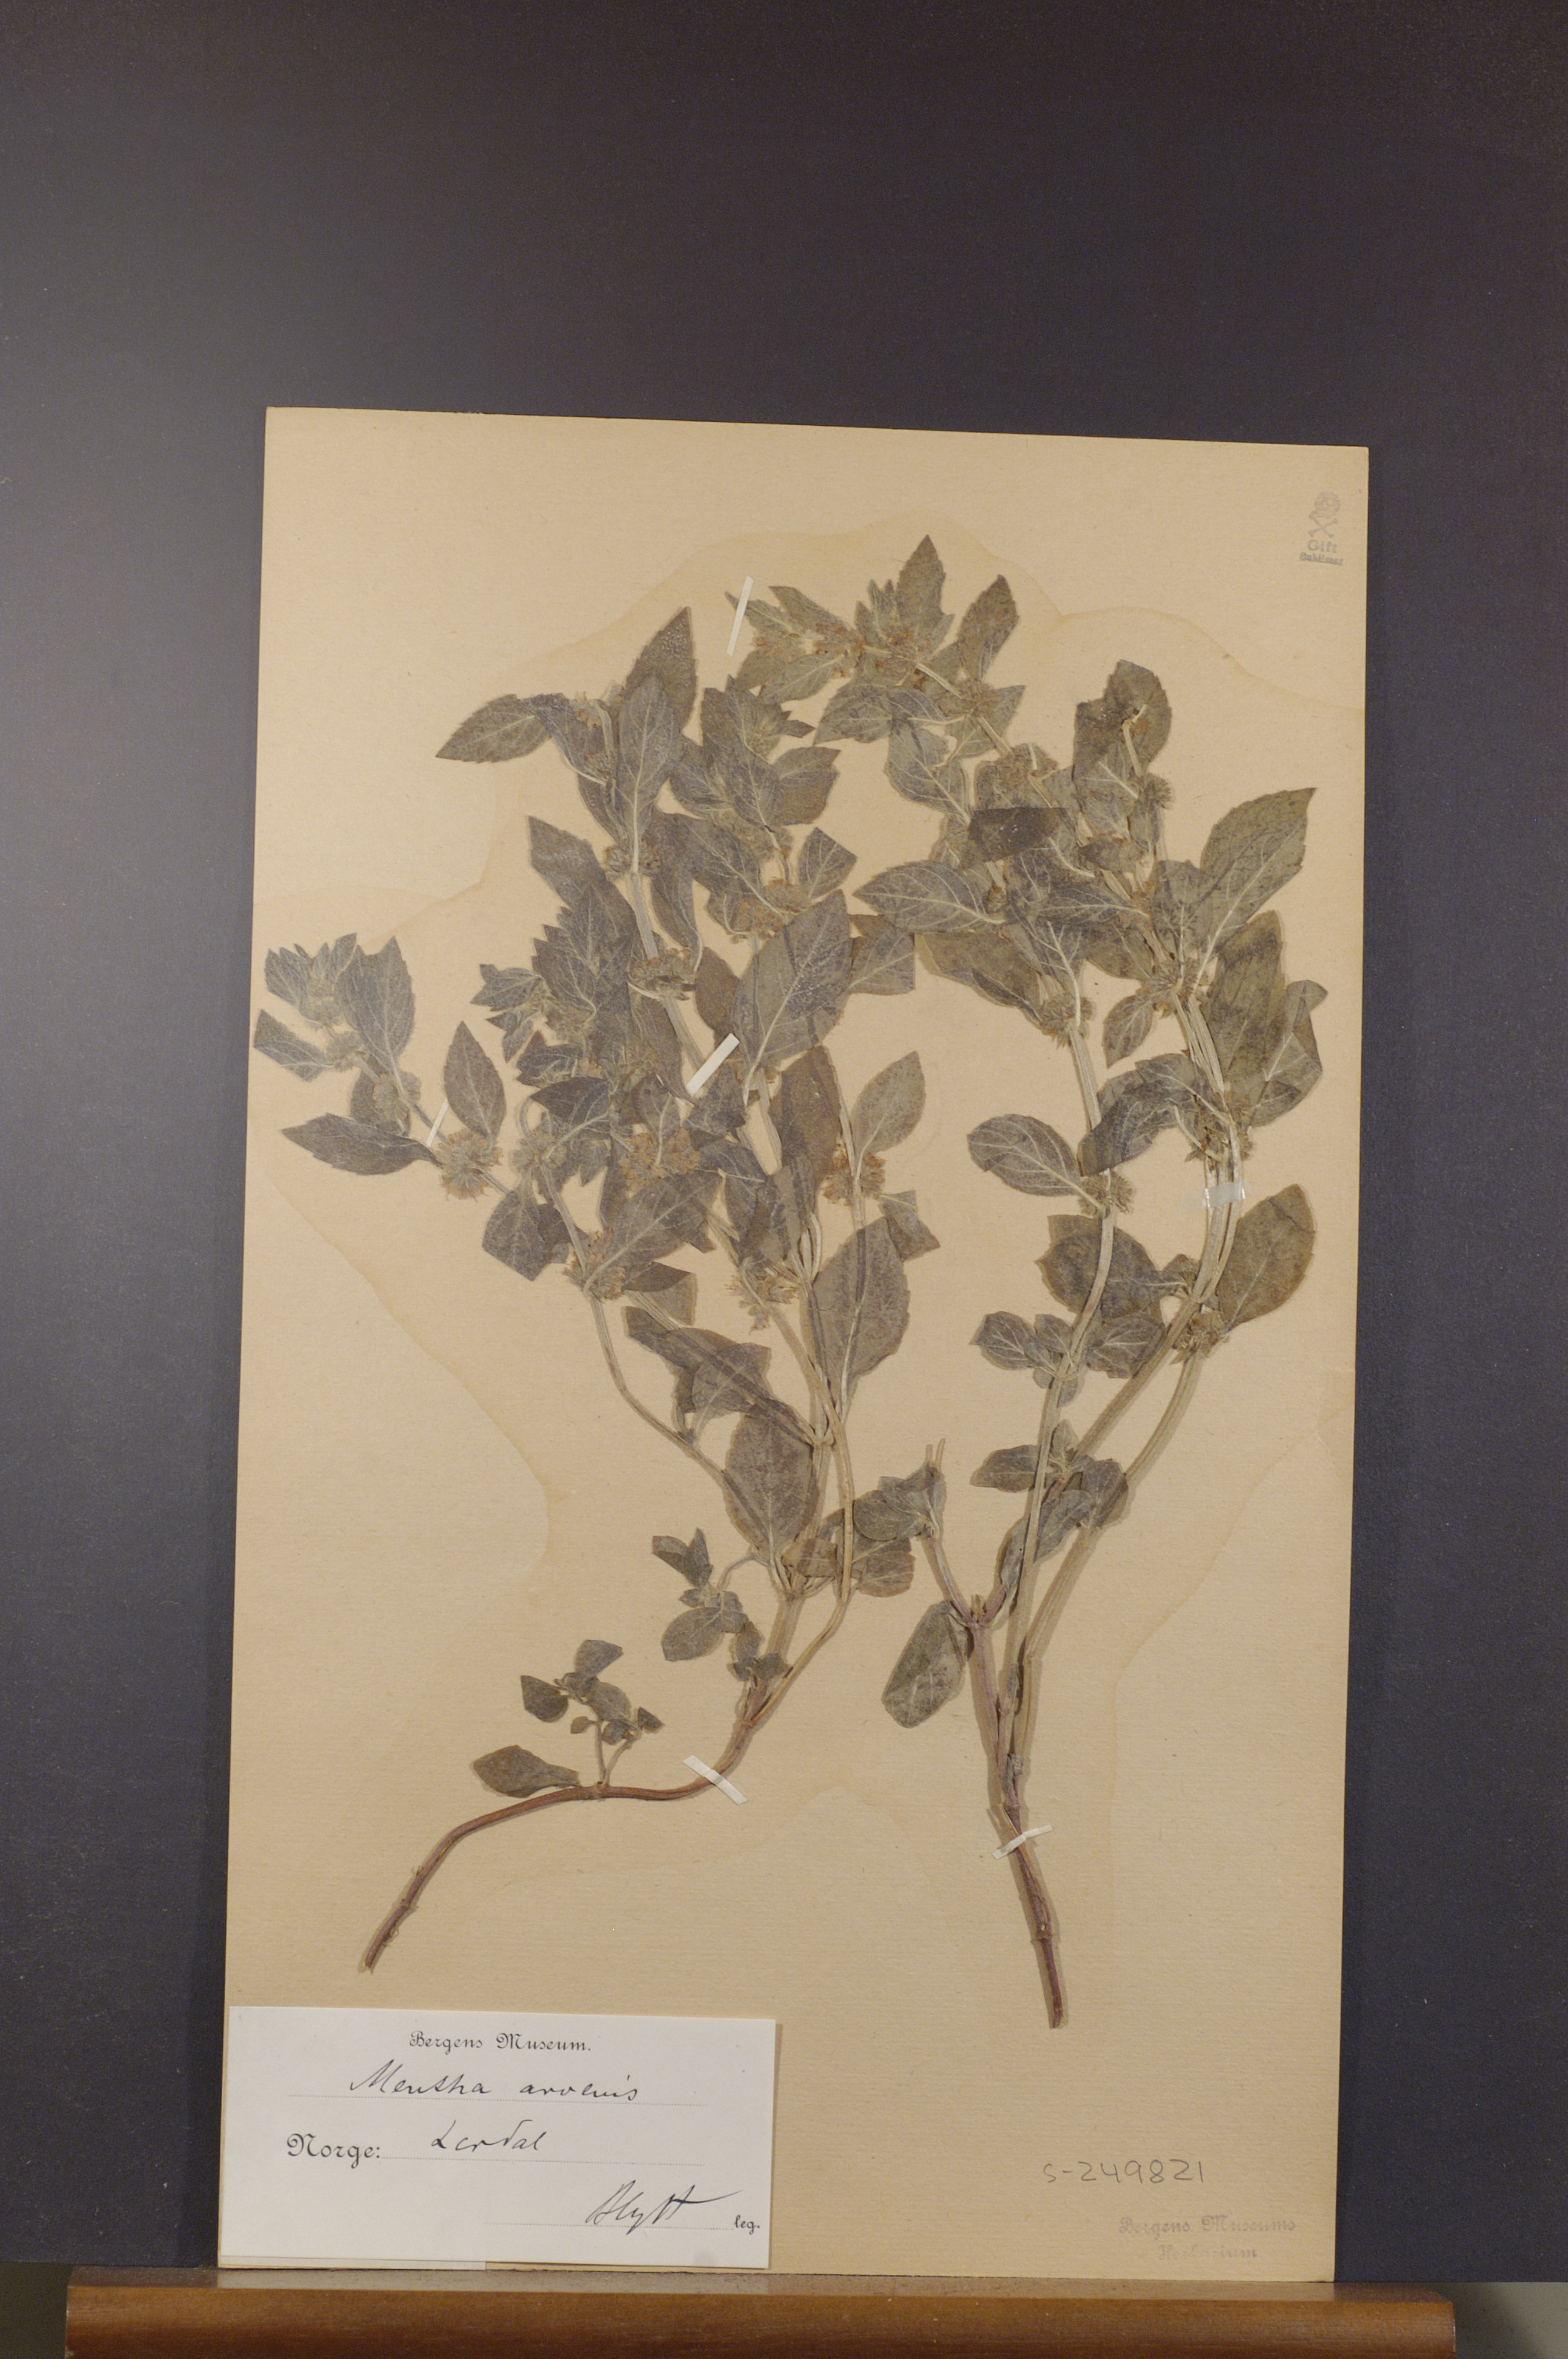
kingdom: Plantae
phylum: Tracheophyta
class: Magnoliopsida
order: Lamiales
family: Lamiaceae
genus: Mentha
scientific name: Mentha arvensis
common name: Corn mint
